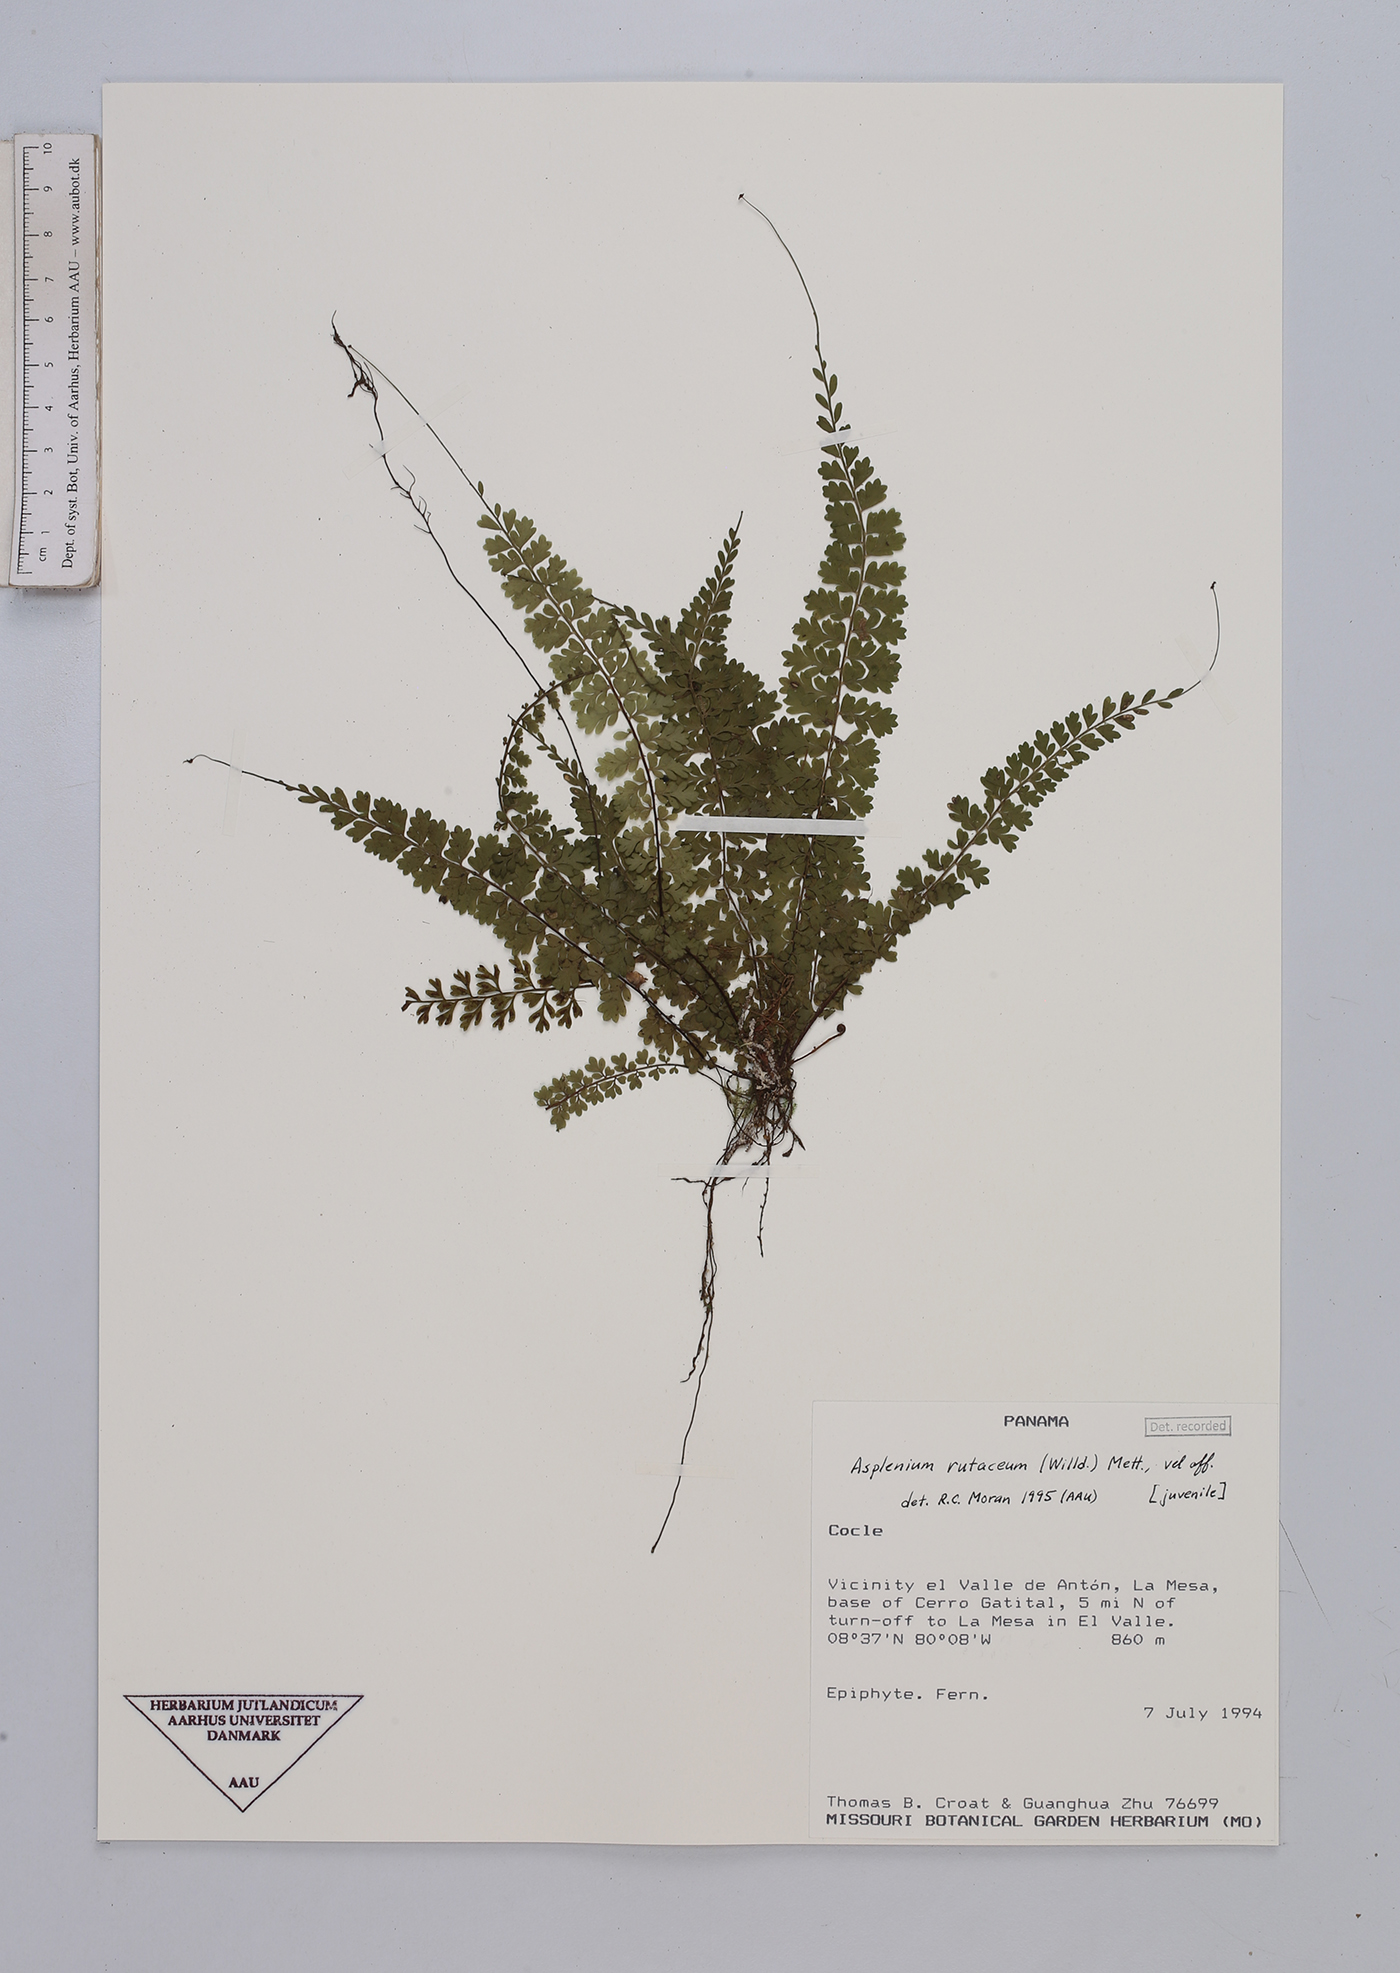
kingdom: Plantae
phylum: Tracheophyta
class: Polypodiopsida
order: Polypodiales
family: Aspleniaceae
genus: Asplenium
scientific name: Asplenium rutaceum
